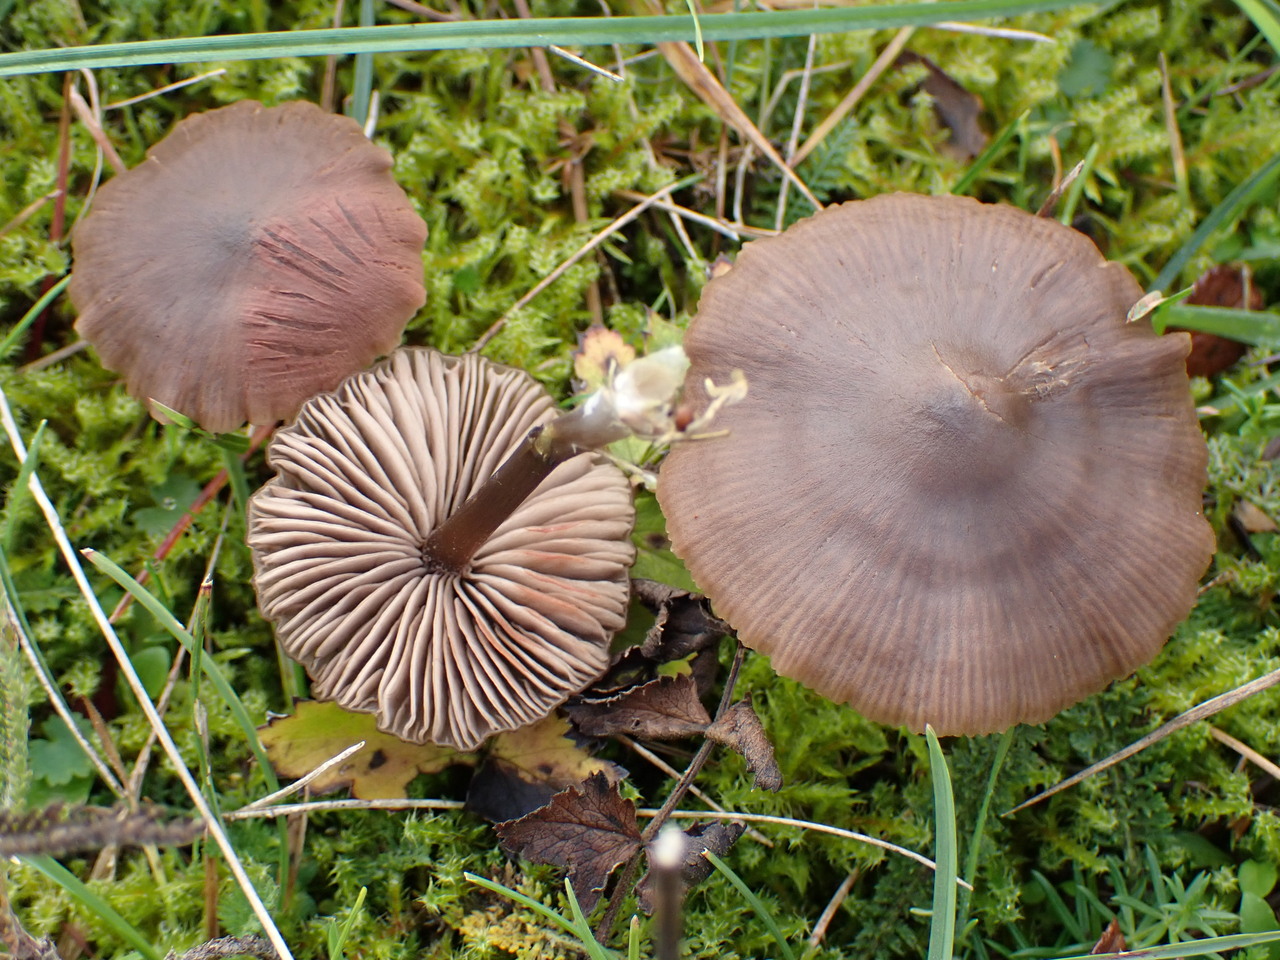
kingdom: Fungi
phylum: Basidiomycota
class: Agaricomycetes
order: Agaricales
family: Entolomataceae
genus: Entoloma
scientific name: Entoloma
